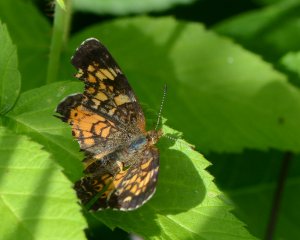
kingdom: Animalia
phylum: Arthropoda
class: Insecta
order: Lepidoptera
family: Nymphalidae
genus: Phyciodes
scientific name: Phyciodes tharos
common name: Northern Crescent
